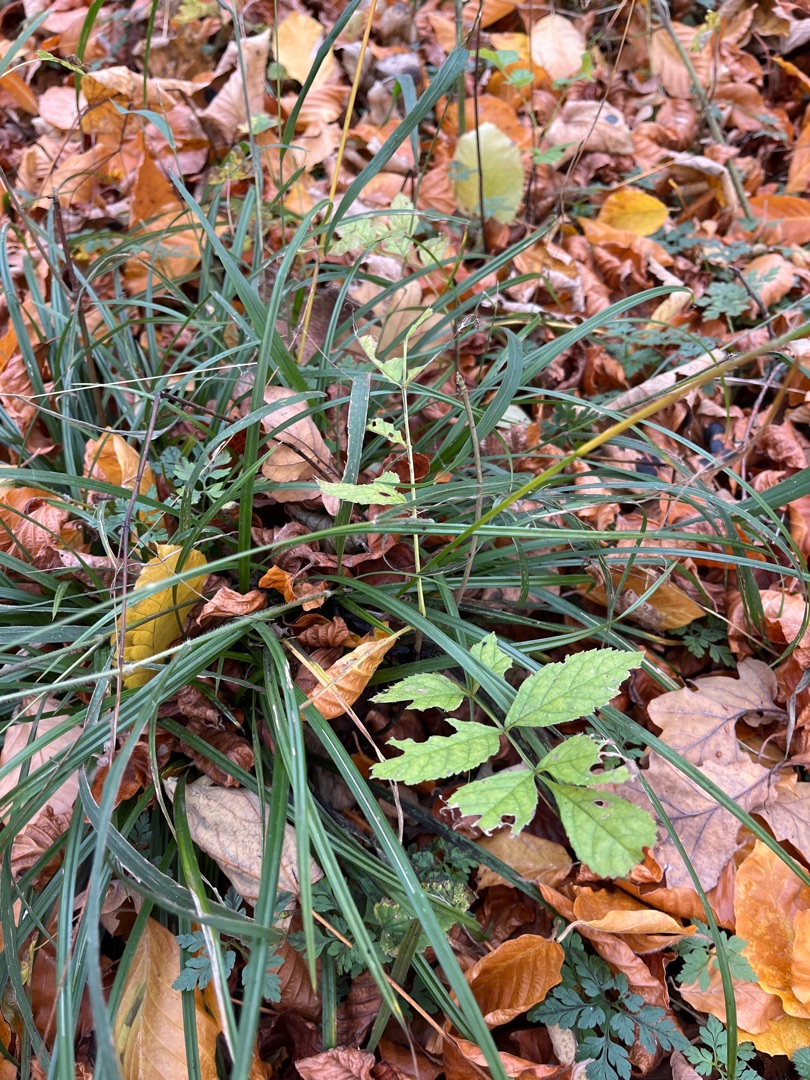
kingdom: Plantae
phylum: Tracheophyta
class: Liliopsida
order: Poales
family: Cyperaceae
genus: Carex
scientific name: Carex sylvatica
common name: Skov-star
